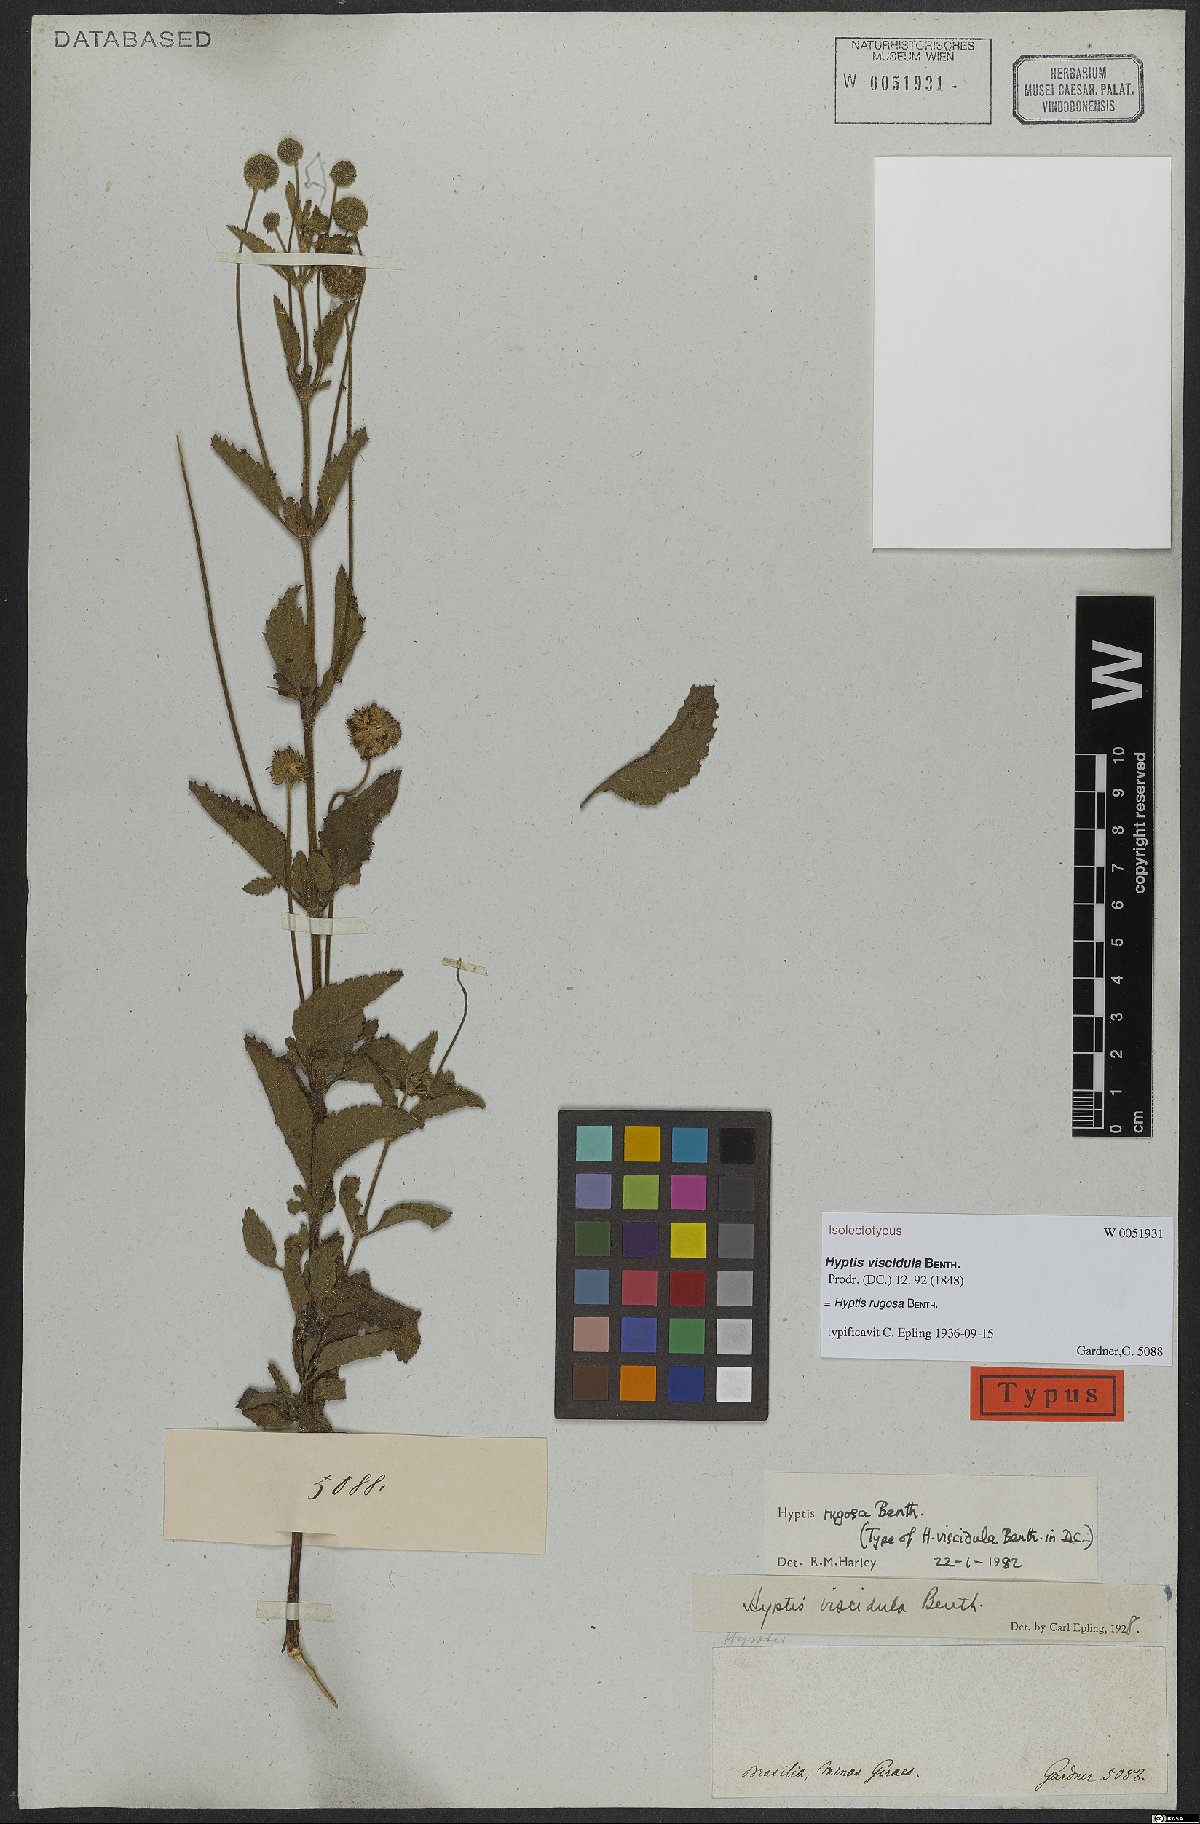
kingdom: Plantae
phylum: Tracheophyta
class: Magnoliopsida
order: Lamiales
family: Lamiaceae
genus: Cyanocephalus
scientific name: Cyanocephalus rugosus
